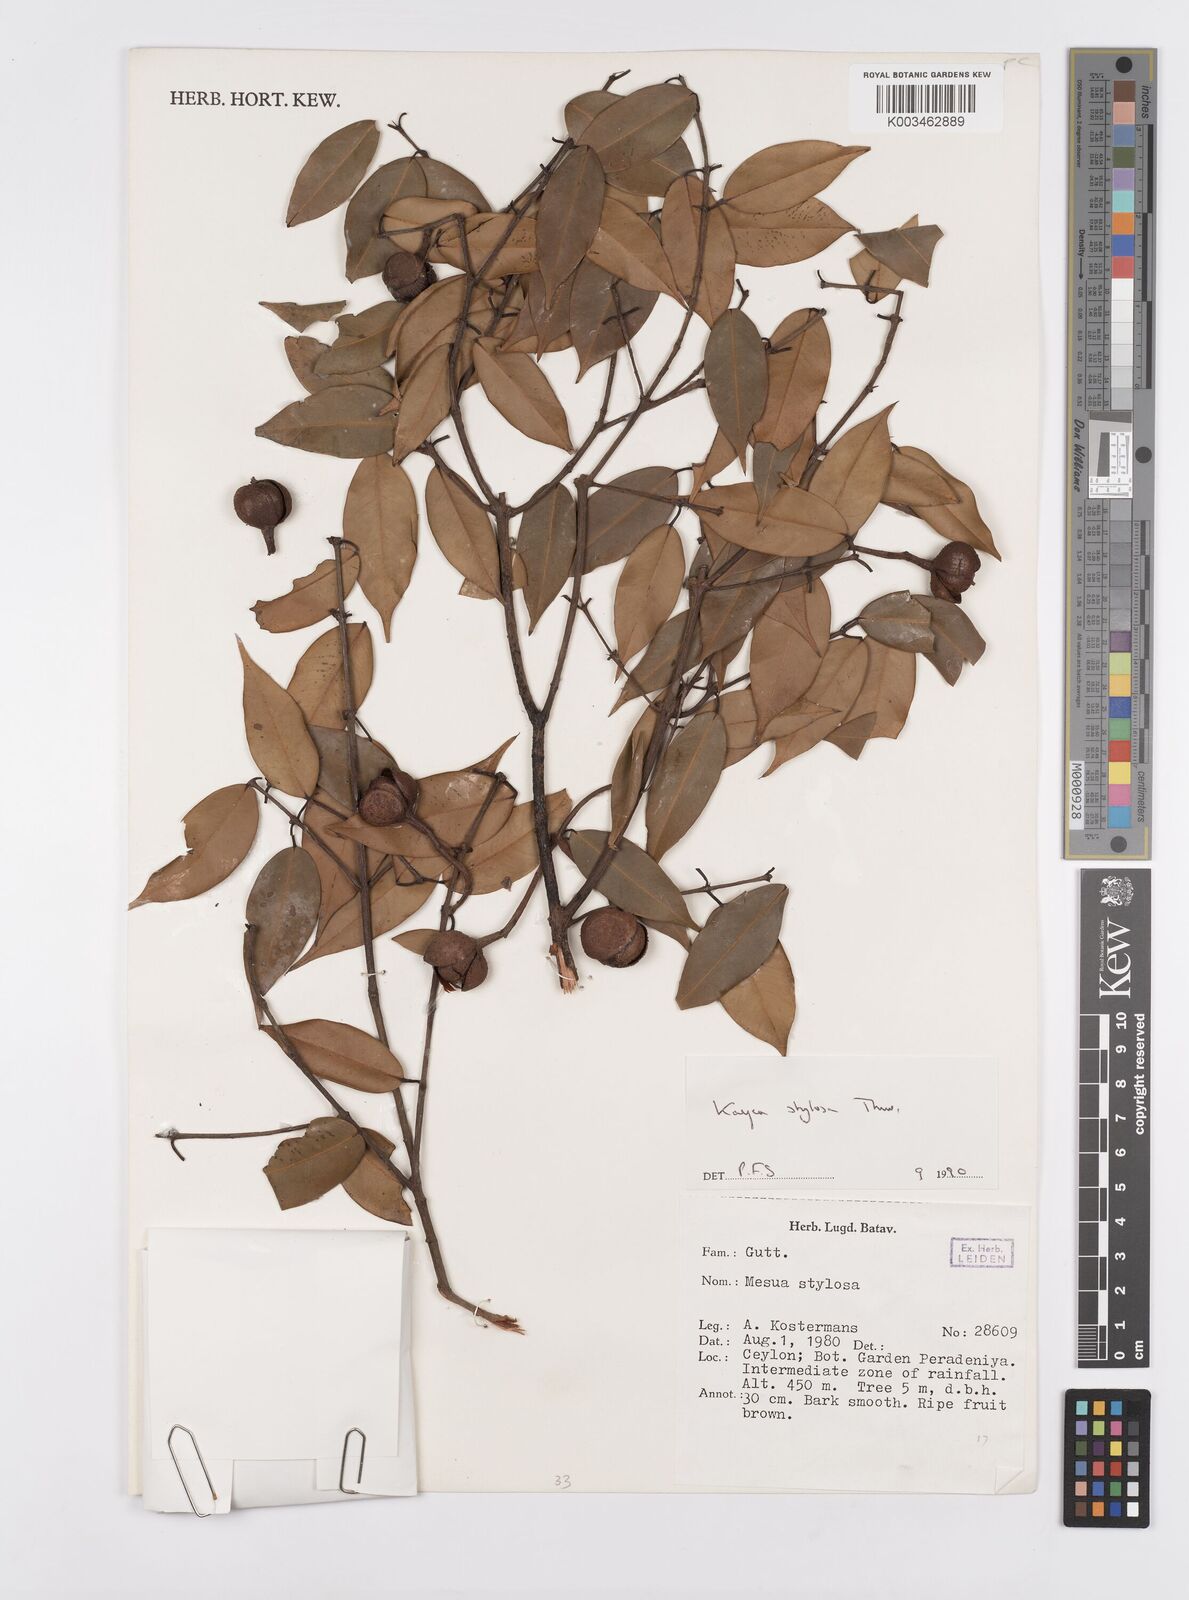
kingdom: Plantae
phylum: Tracheophyta
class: Magnoliopsida
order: Malpighiales
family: Calophyllaceae
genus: Kayea
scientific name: Kayea stylosa
